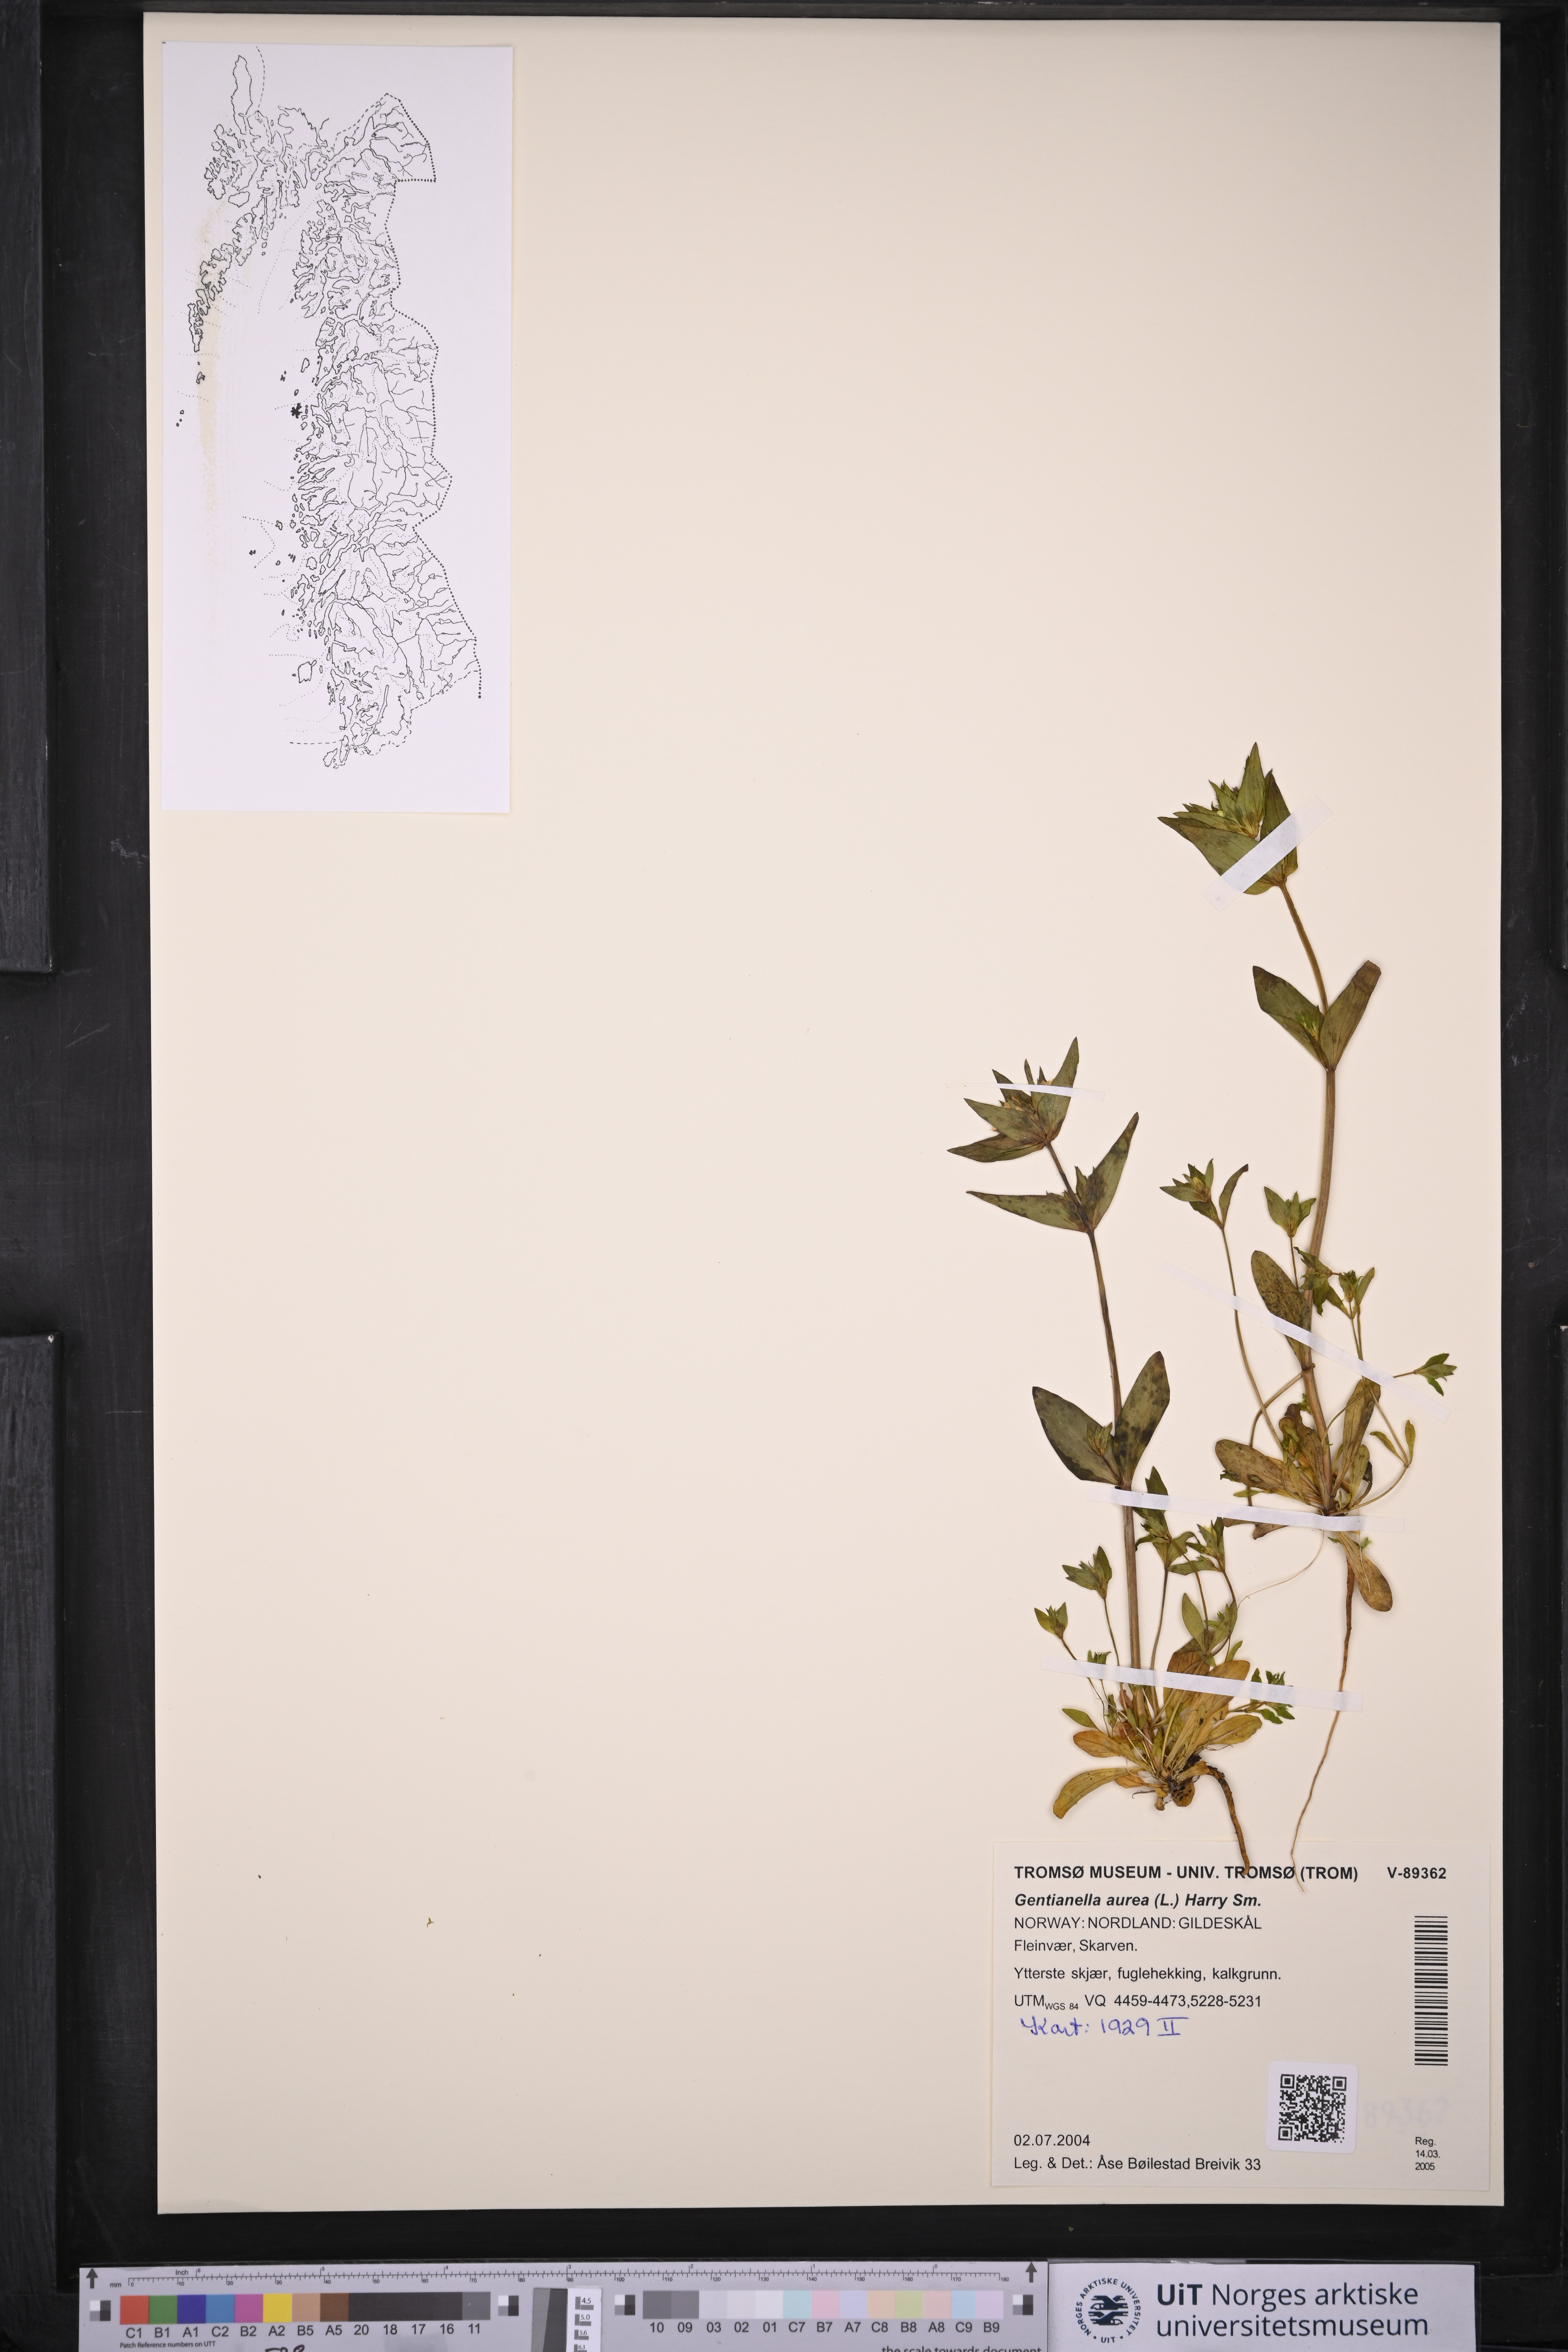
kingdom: Plantae
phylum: Tracheophyta
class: Magnoliopsida
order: Gentianales
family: Gentianaceae
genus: Gentianella
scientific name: Gentianella aurea
